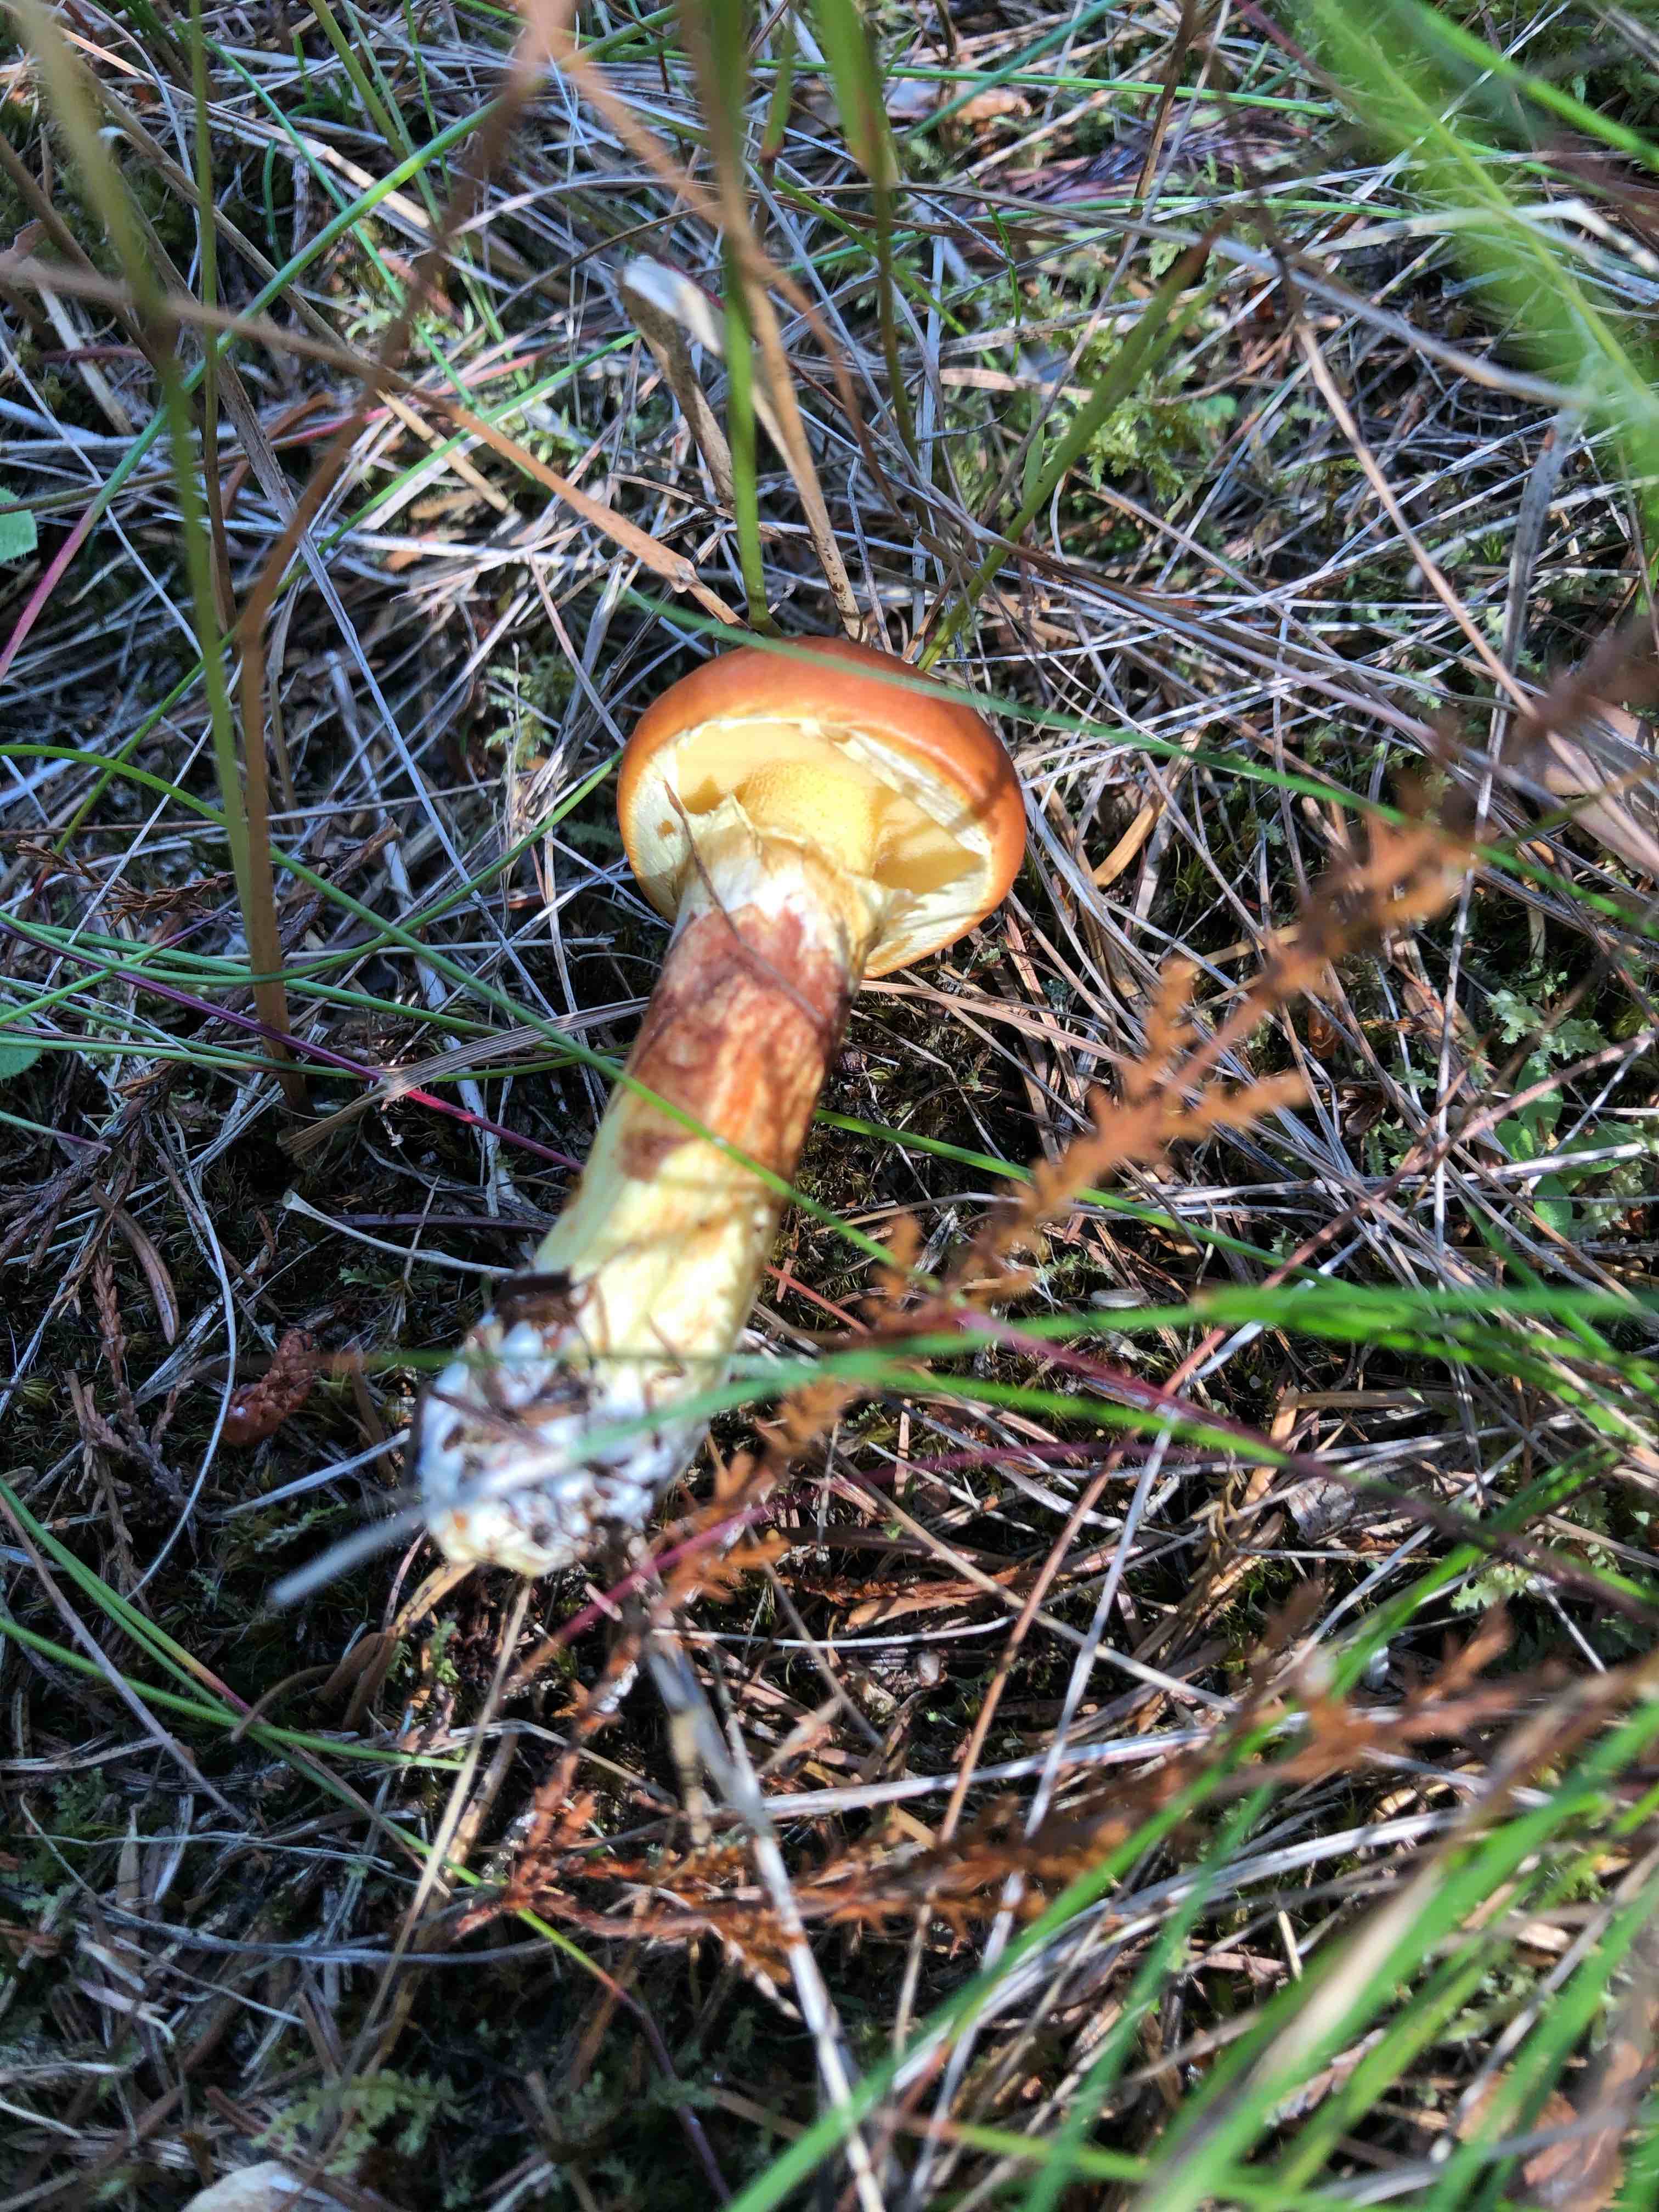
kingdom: Fungi
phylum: Basidiomycota
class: Agaricomycetes
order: Boletales
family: Suillaceae
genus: Suillus
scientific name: Suillus grevillei
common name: lærke-slimrørhat
